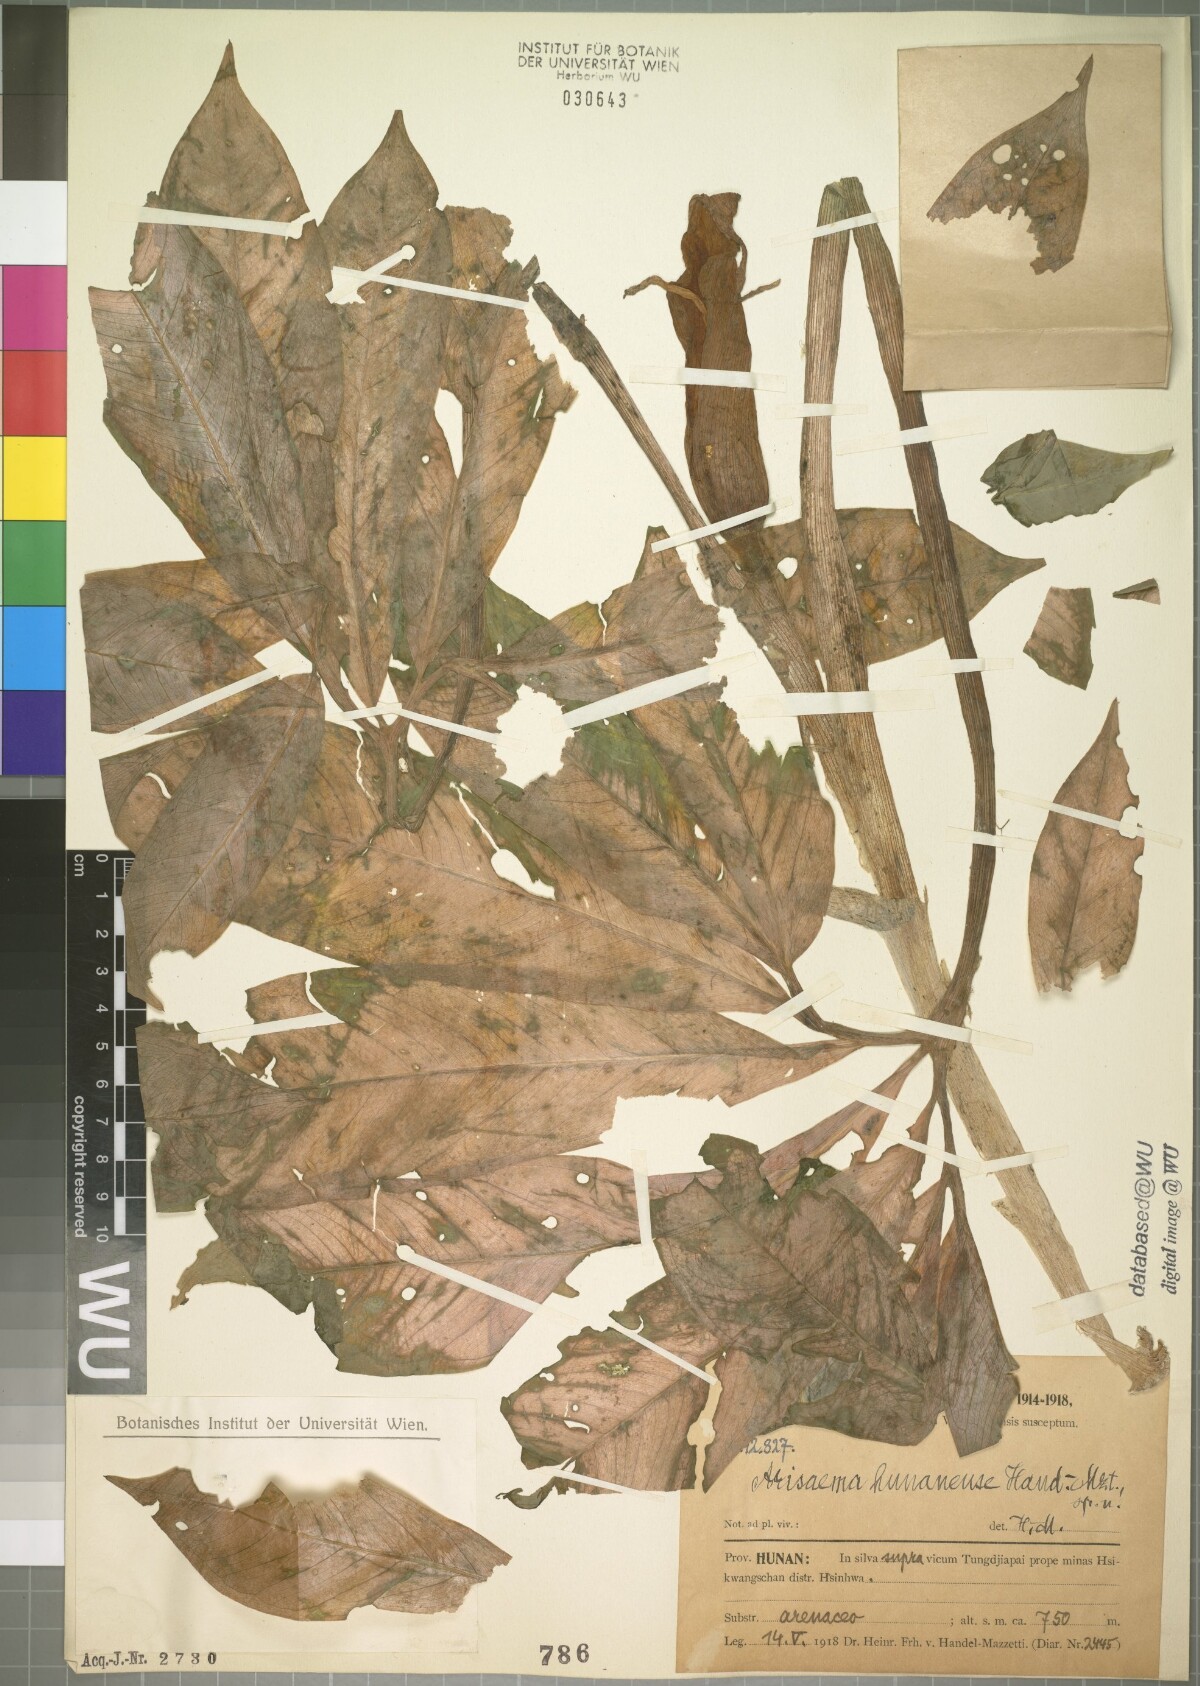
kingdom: Plantae
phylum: Tracheophyta
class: Liliopsida
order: Alismatales
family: Araceae
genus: Arisaema
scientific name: Arisaema hunanense
